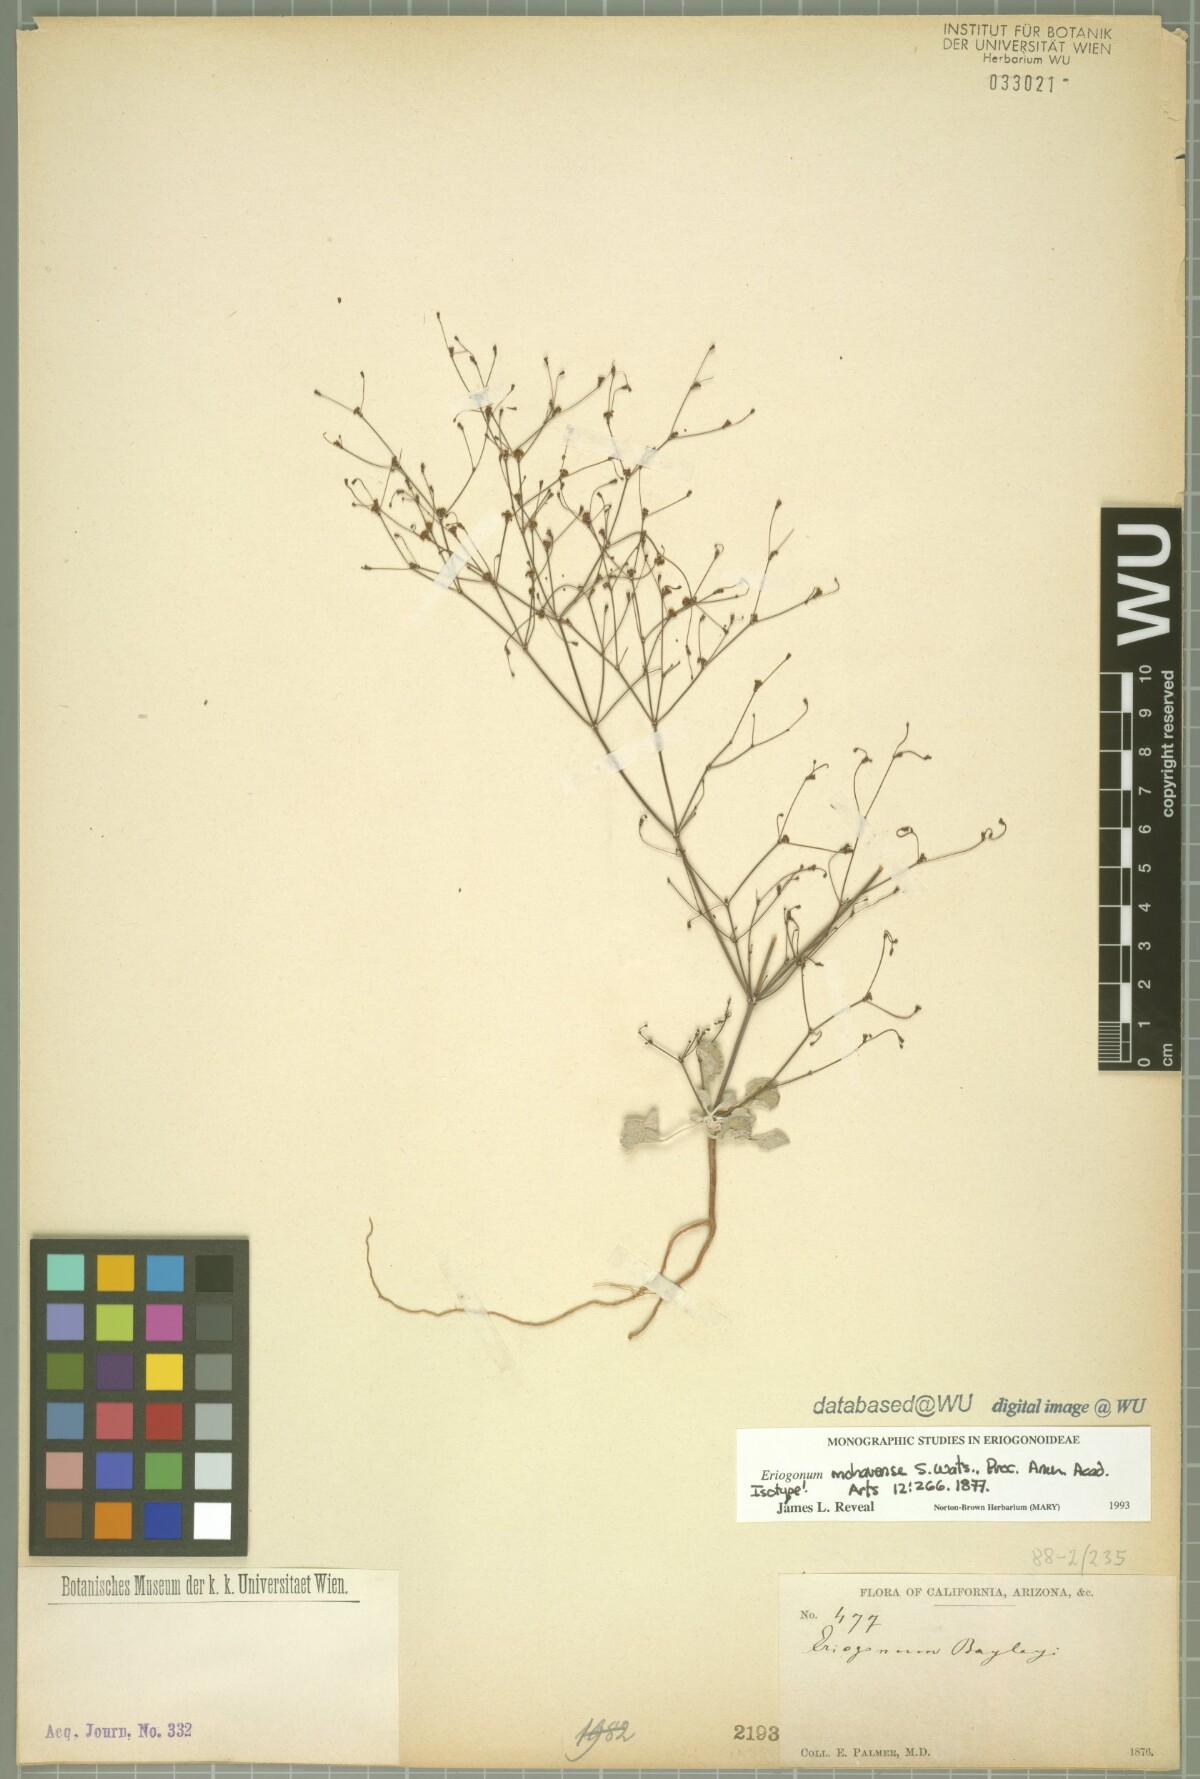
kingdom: Plantae
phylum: Tracheophyta
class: Magnoliopsida
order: Caryophyllales
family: Polygonaceae
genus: Eriogonum
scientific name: Eriogonum mohavense
